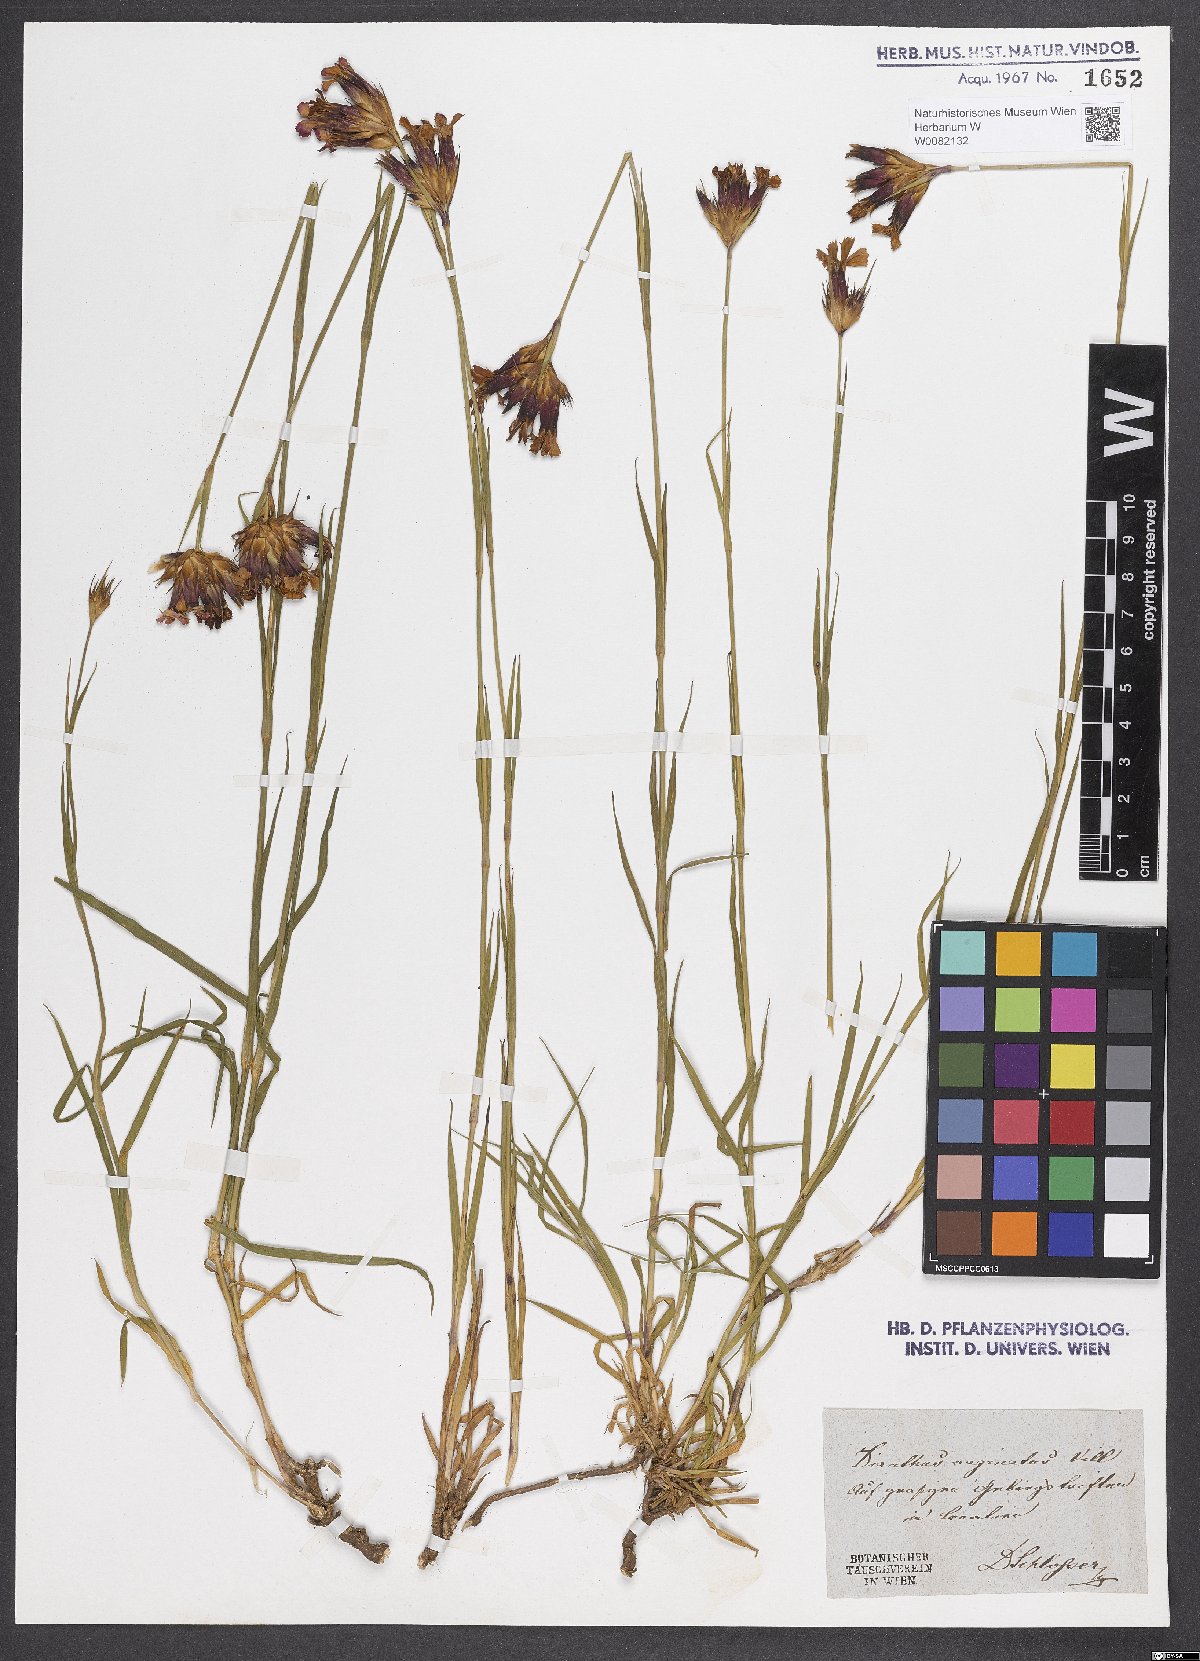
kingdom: Plantae
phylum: Tracheophyta
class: Magnoliopsida
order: Caryophyllales
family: Caryophyllaceae
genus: Dianthus
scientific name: Dianthus carthusianorum
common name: Carthusian pink
